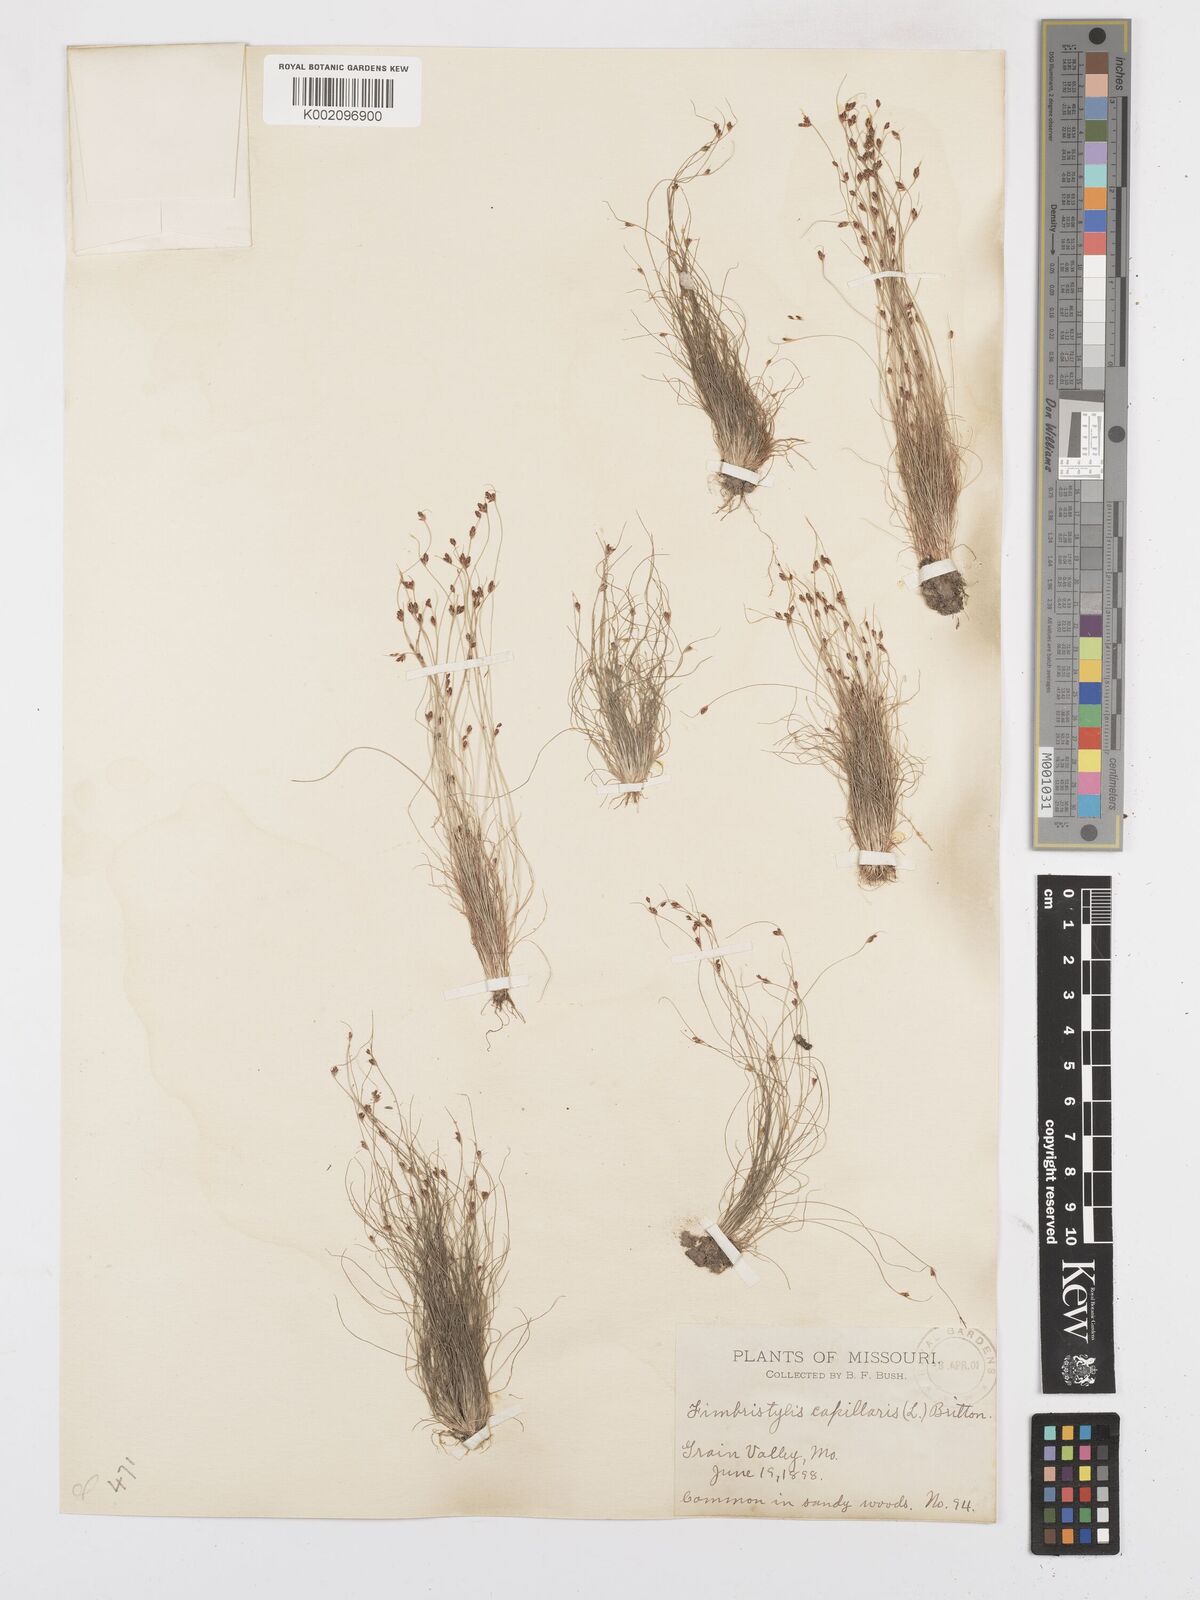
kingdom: Plantae
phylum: Tracheophyta
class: Liliopsida
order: Poales
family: Cyperaceae
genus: Bulbostylis
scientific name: Bulbostylis capillaris
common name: Densetuft hairsedge
